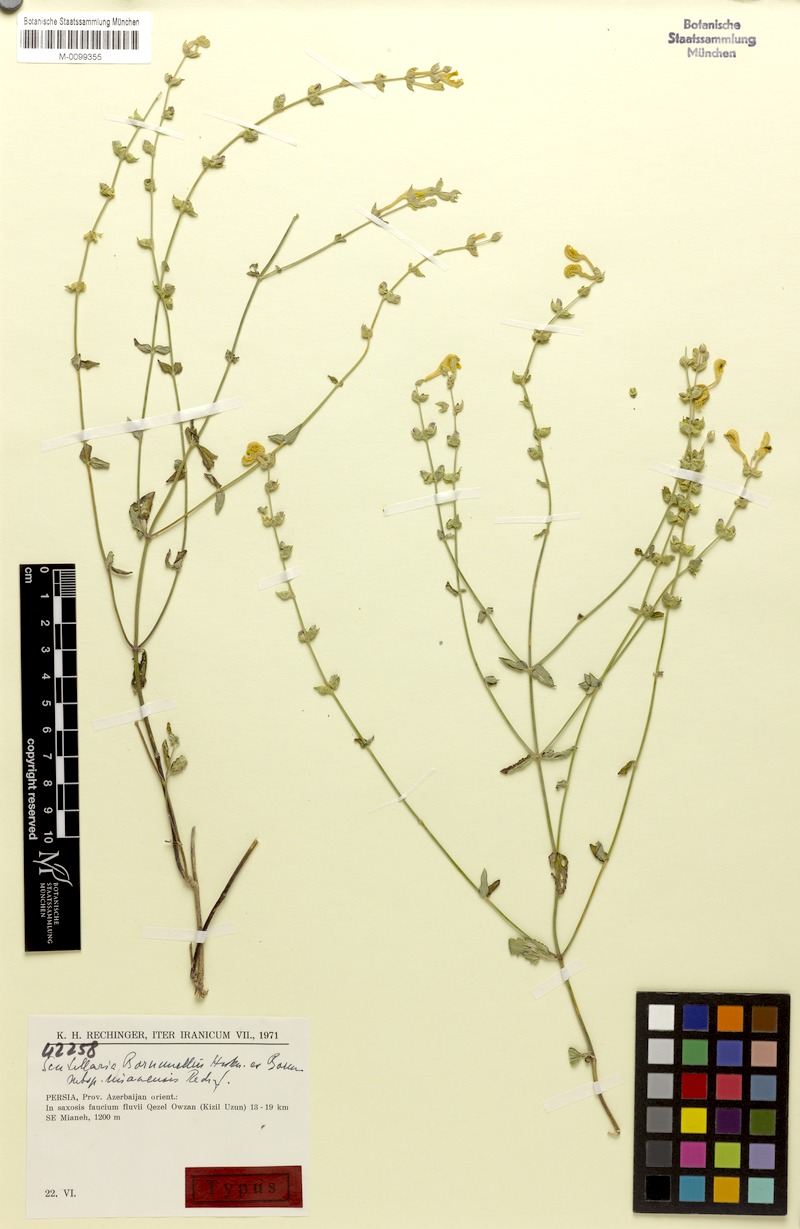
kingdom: Plantae
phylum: Tracheophyta
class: Magnoliopsida
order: Lamiales
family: Lamiaceae
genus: Scutellaria
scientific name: Scutellaria bornmuelleri
